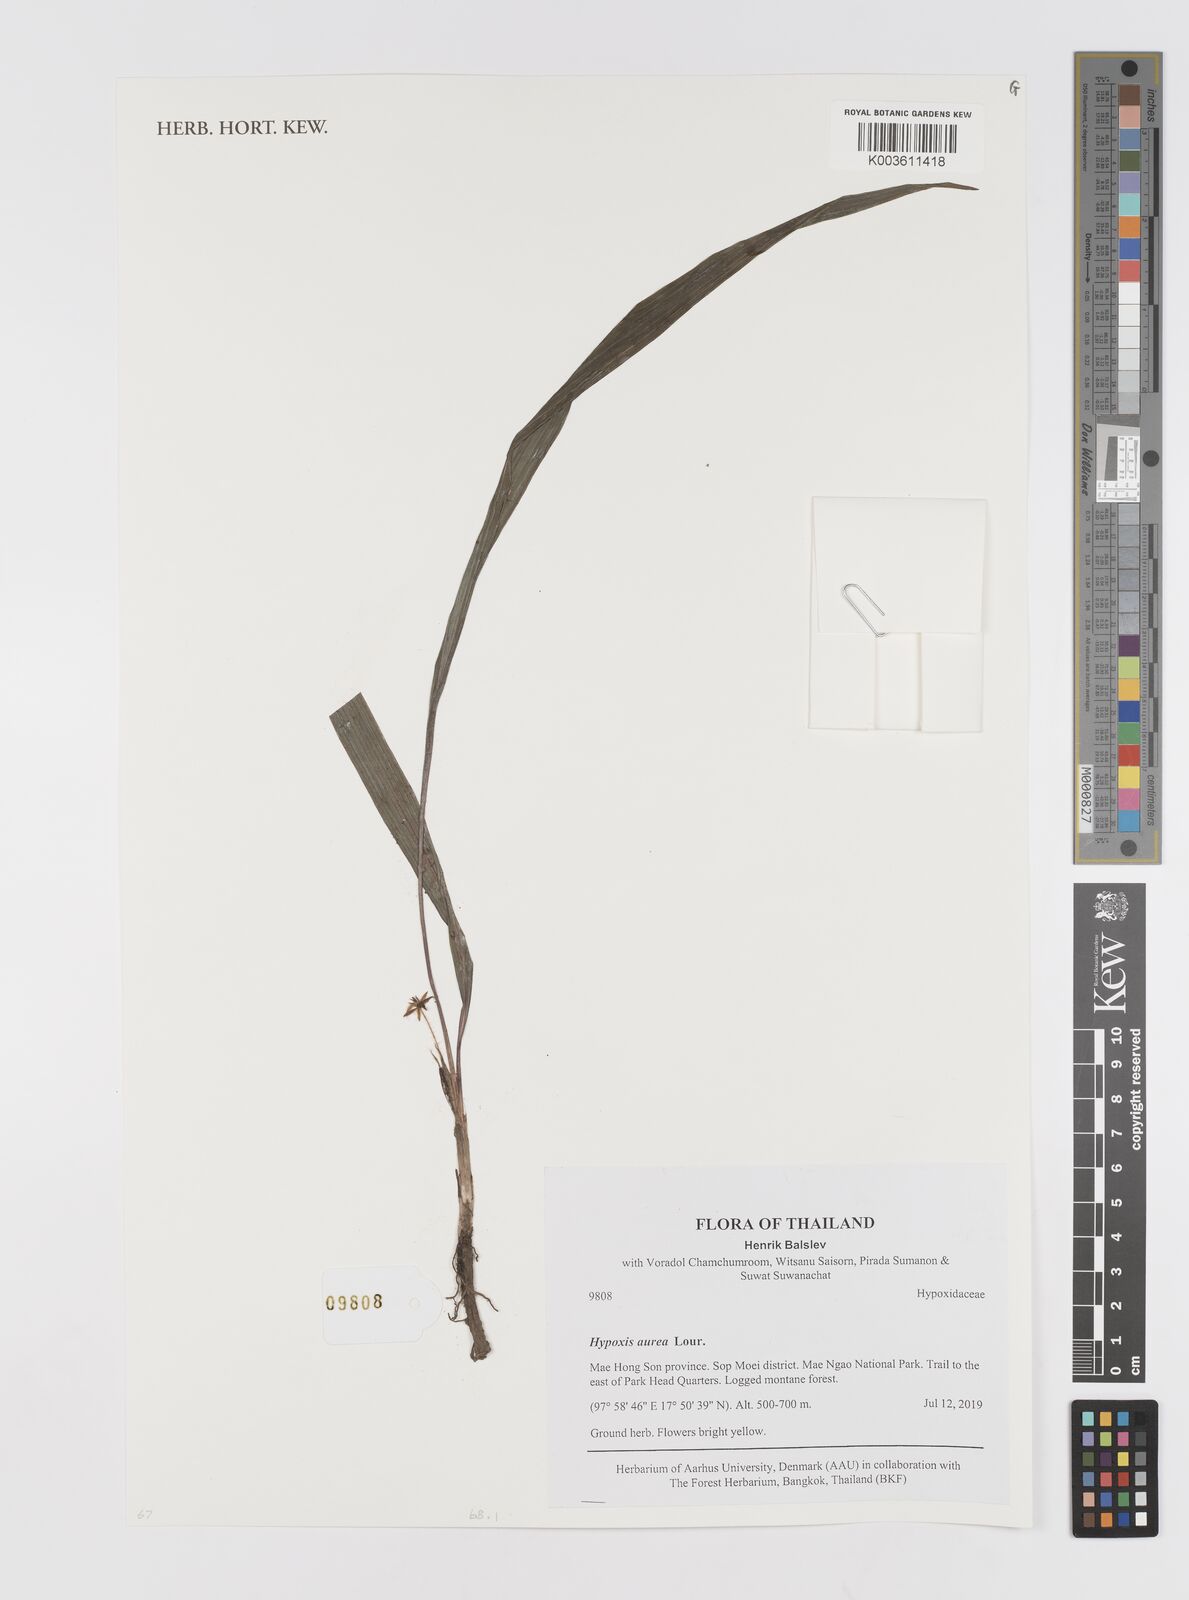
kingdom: Plantae
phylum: Tracheophyta
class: Liliopsida
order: Asparagales
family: Hypoxidaceae
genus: Hypoxis
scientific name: Hypoxis aurea
